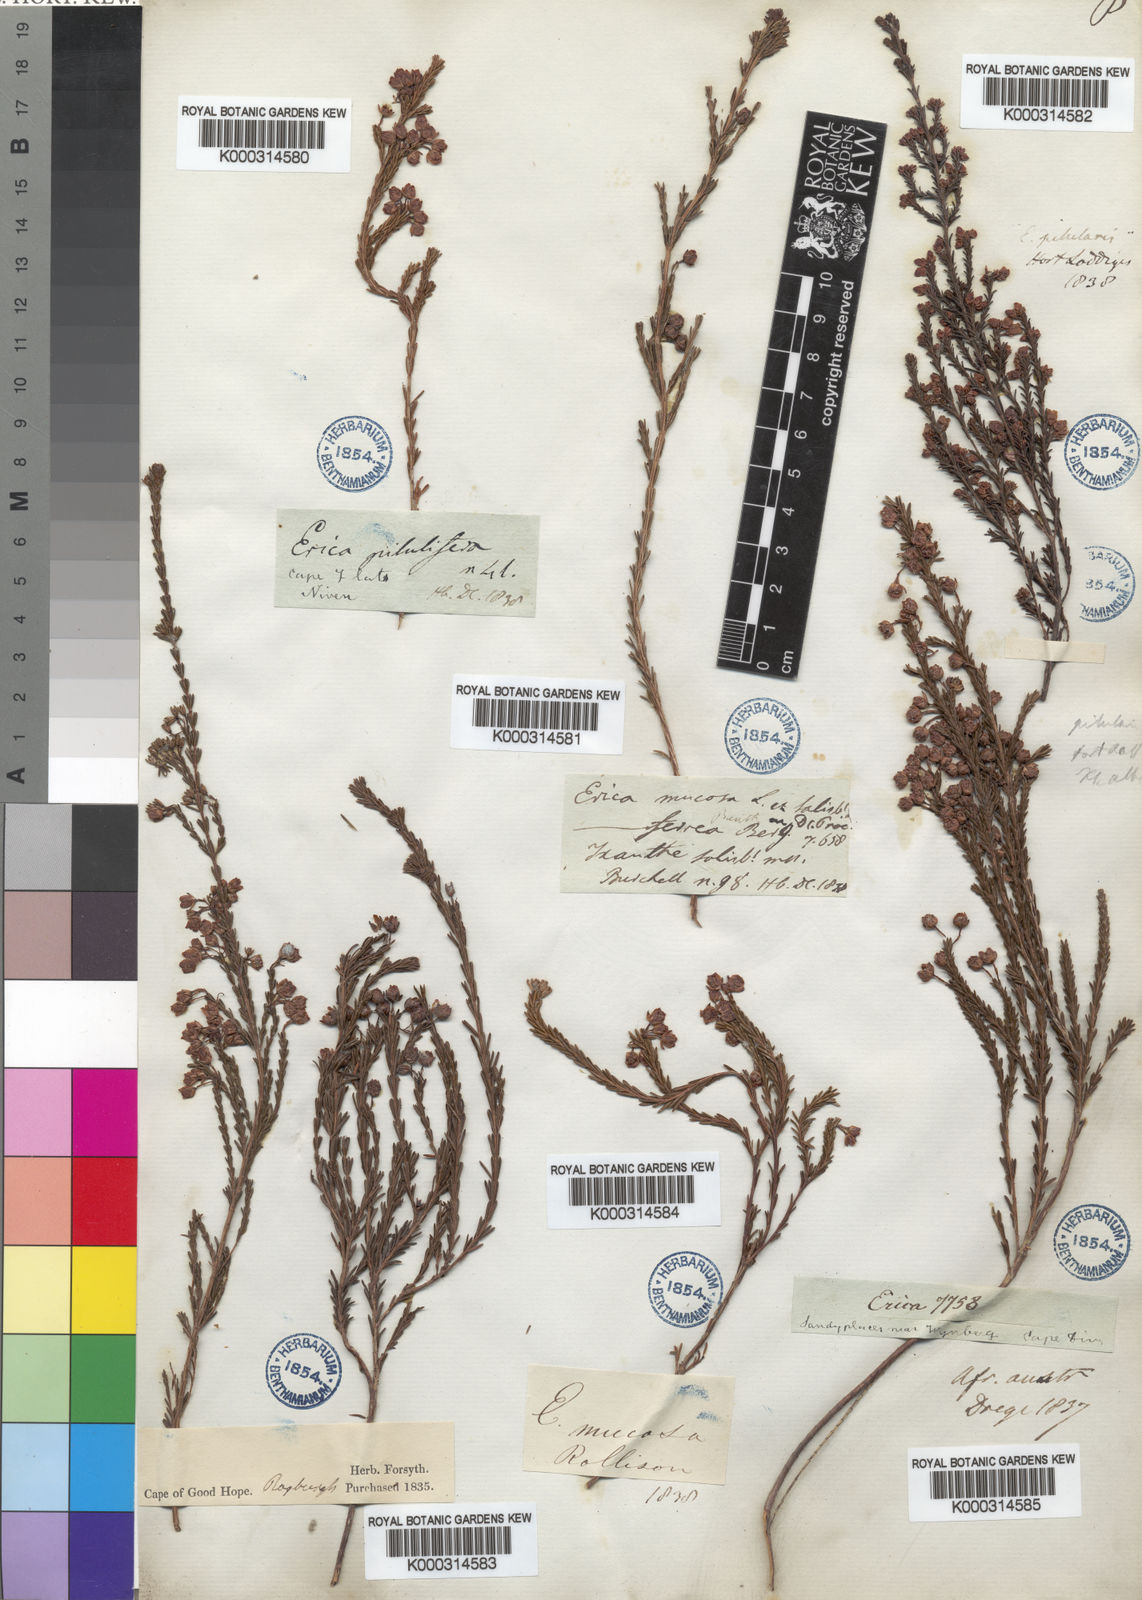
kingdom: Plantae
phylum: Tracheophyta
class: Magnoliopsida
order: Ericales
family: Ericaceae
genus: Erica
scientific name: Erica ferrea
